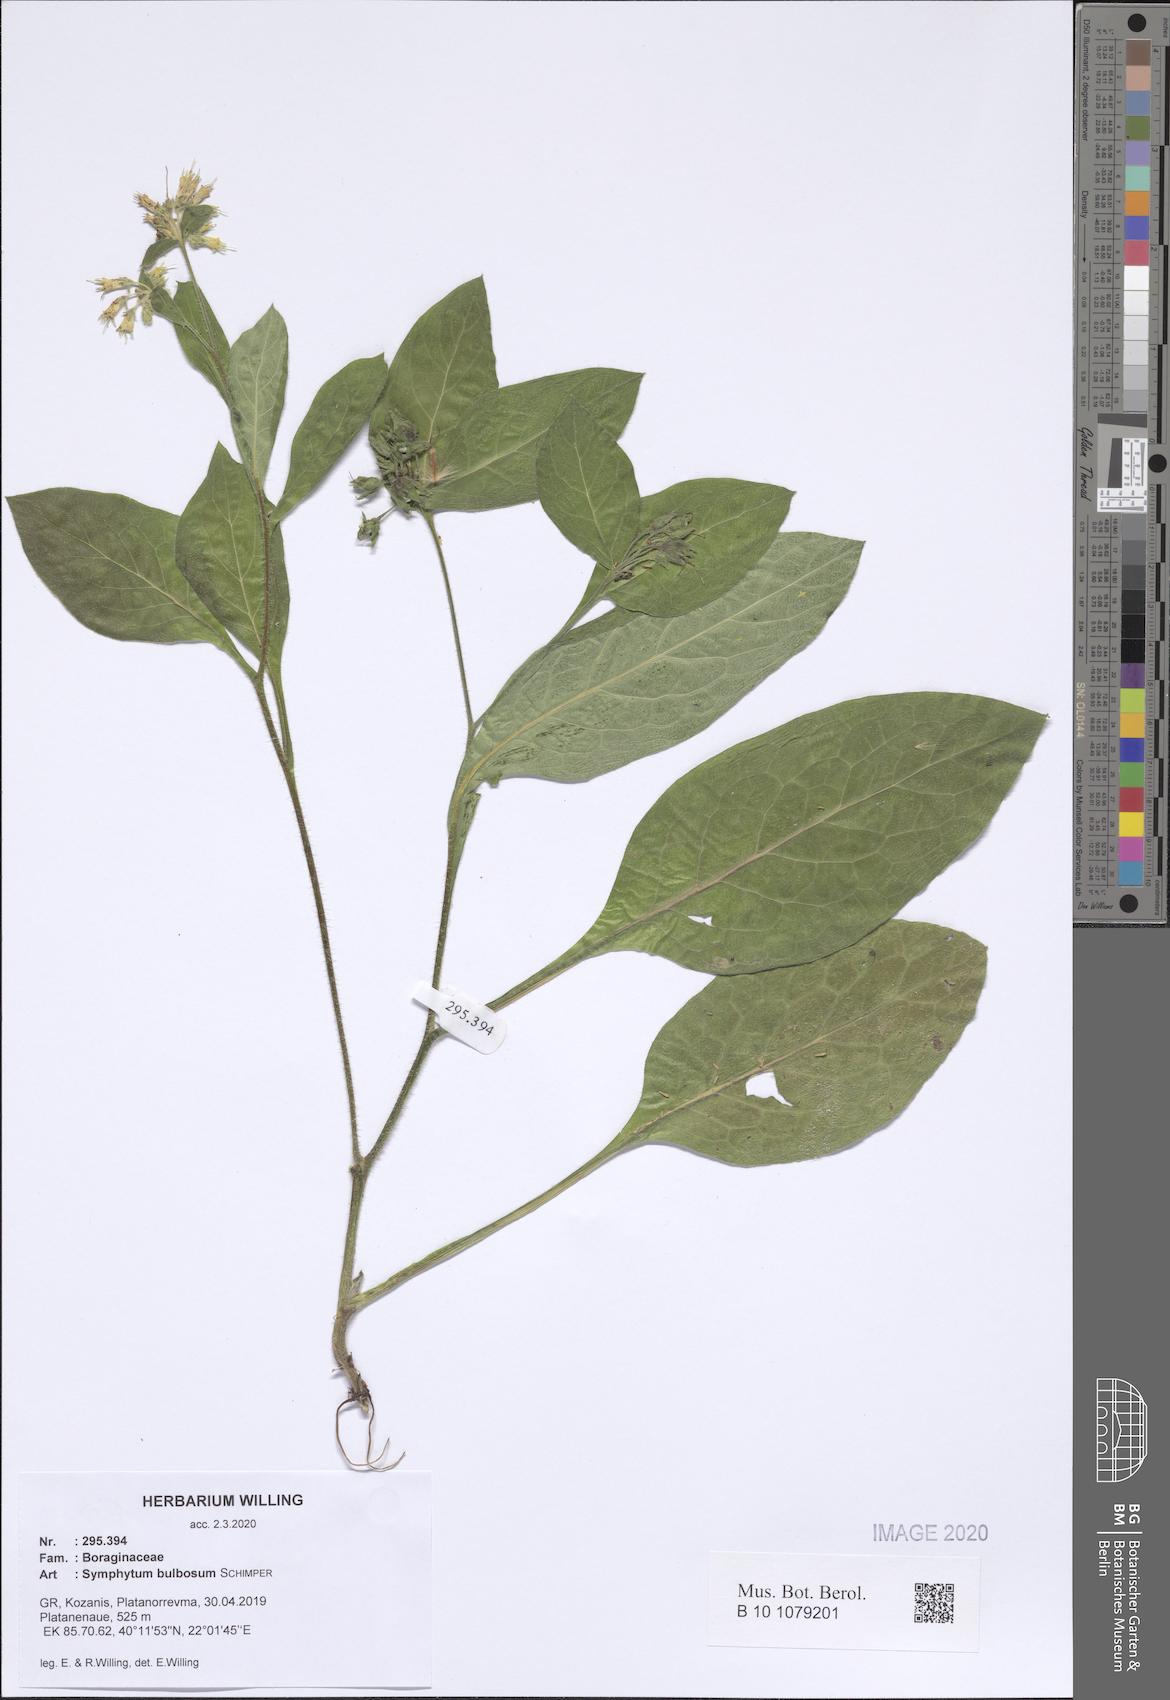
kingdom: Plantae
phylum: Tracheophyta
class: Magnoliopsida
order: Boraginales
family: Boraginaceae
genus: Symphytum
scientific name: Symphytum bulbosum
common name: Bulbous comfrey
